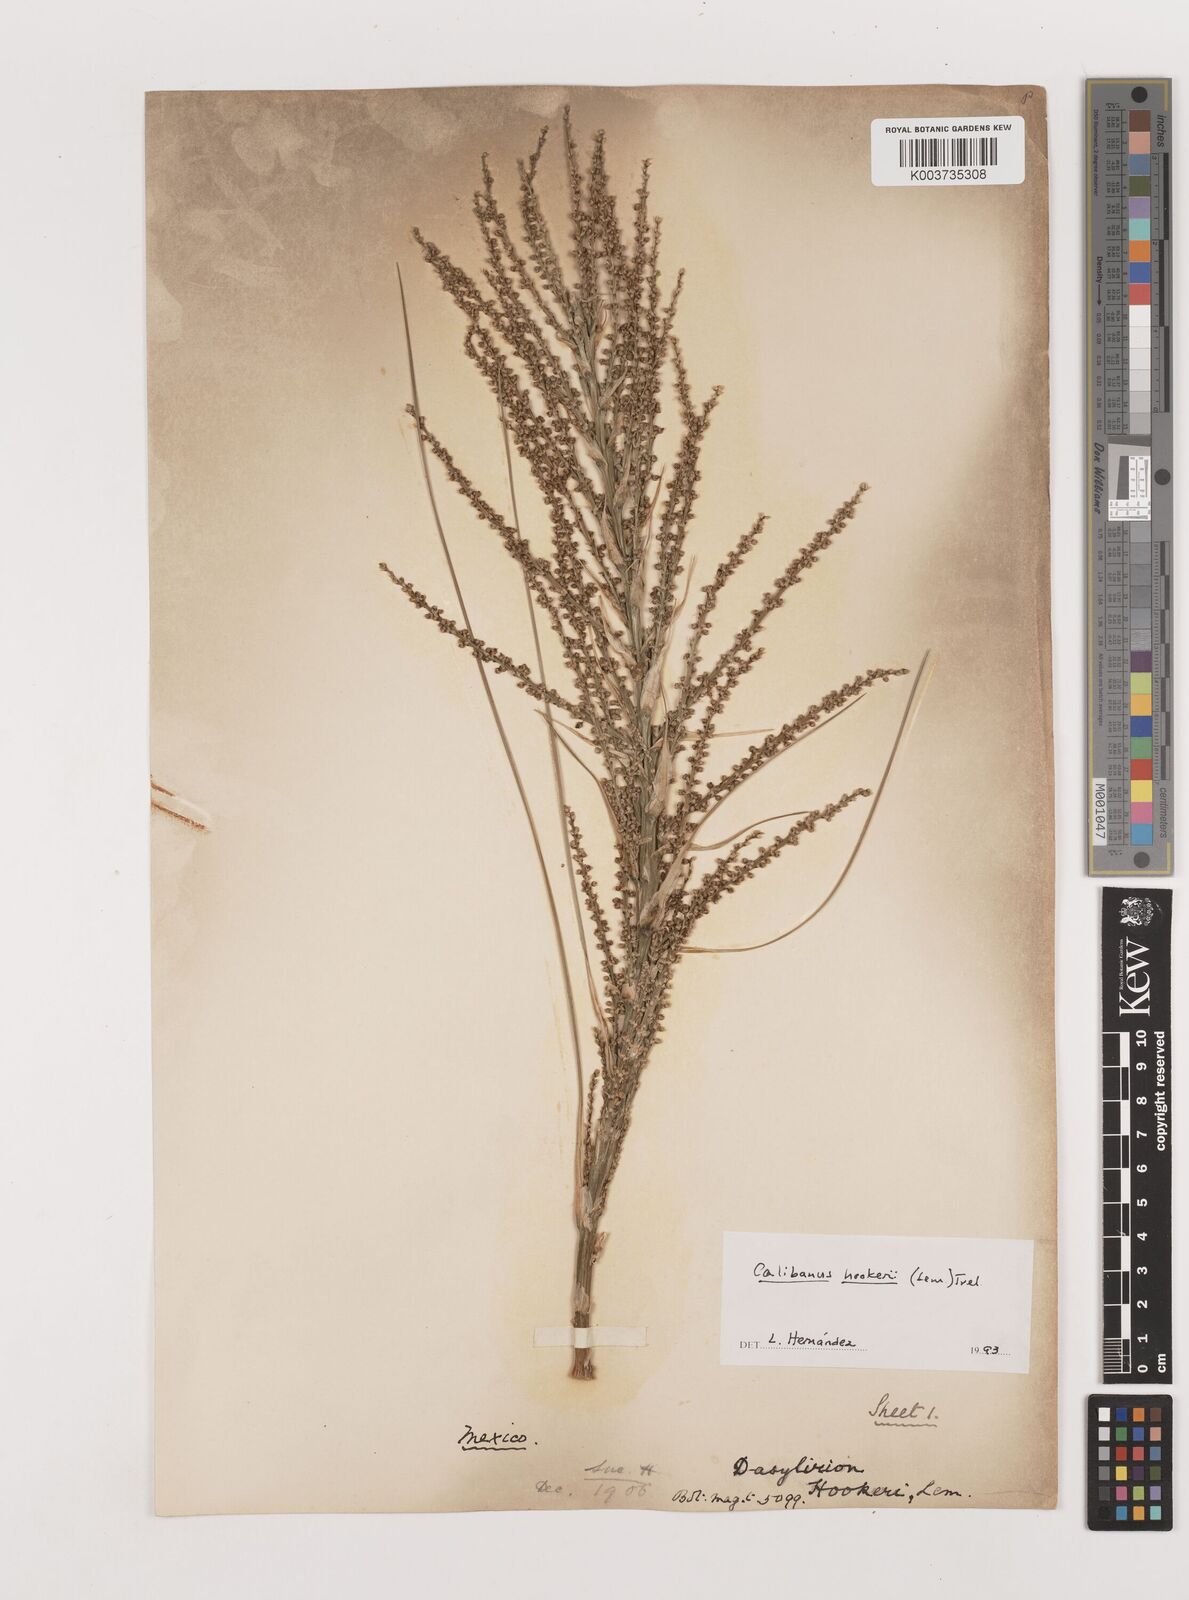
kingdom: Plantae
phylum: Tracheophyta
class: Liliopsida
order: Asparagales
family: Asparagaceae
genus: Beaucarnea
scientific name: Beaucarnea hookeri
